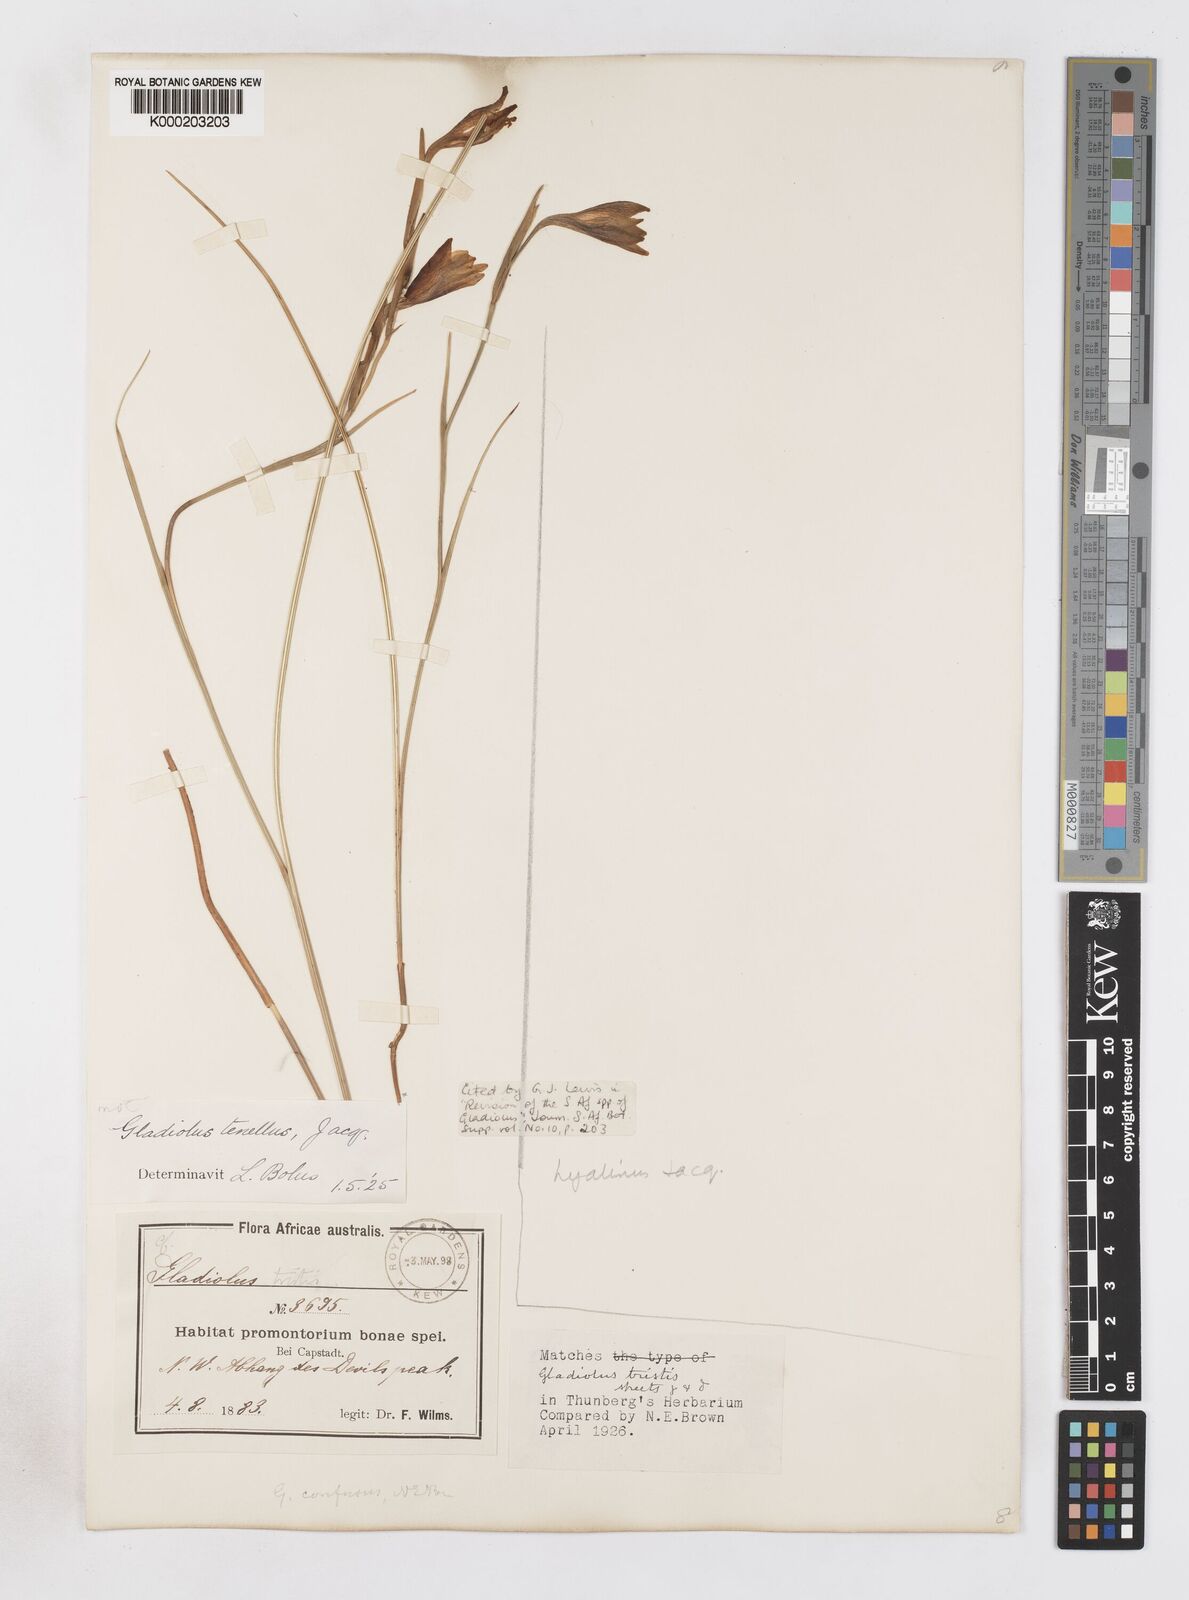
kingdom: Plantae
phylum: Tracheophyta
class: Liliopsida
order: Asparagales
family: Iridaceae
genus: Gladiolus
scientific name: Gladiolus hyalinus
